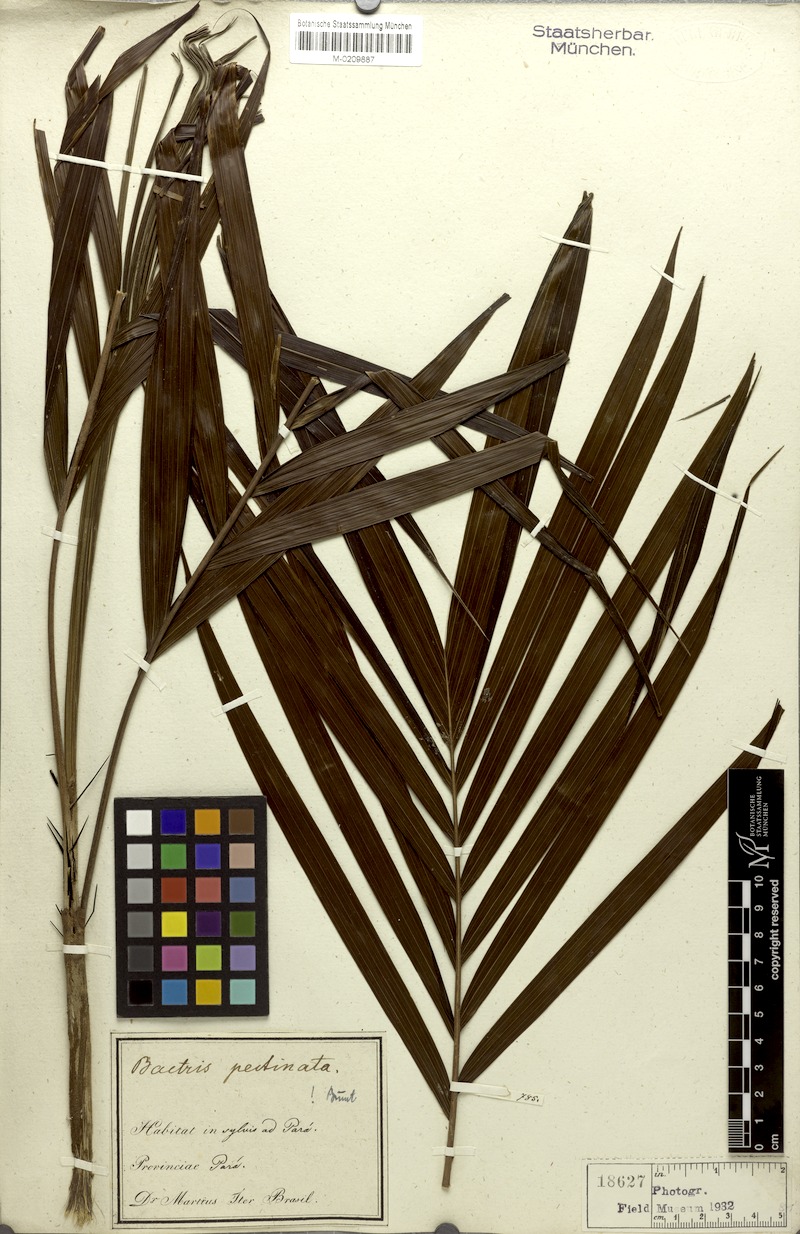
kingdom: Plantae
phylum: Tracheophyta
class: Liliopsida
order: Arecales
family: Arecaceae
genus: Bactris
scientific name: Bactris hirta
